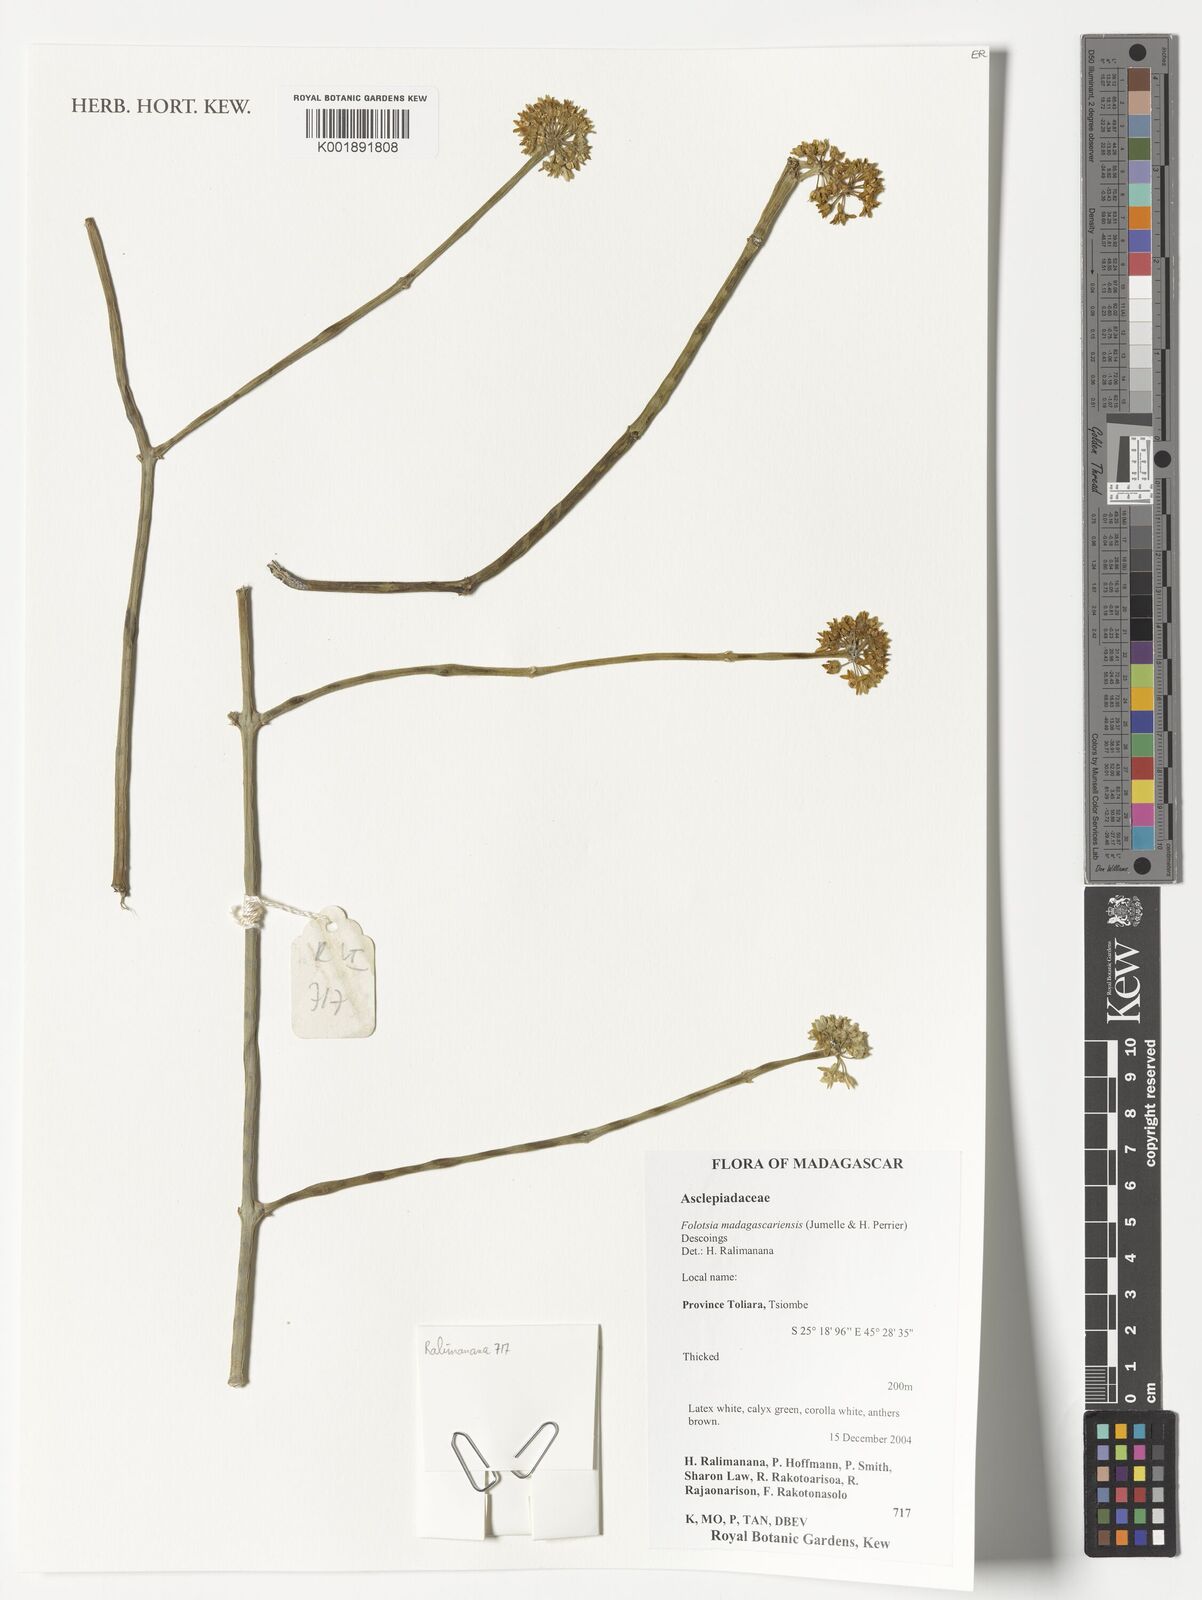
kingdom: Plantae
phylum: Tracheophyta
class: Magnoliopsida
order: Gentianales
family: Apocynaceae
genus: Cynanchum
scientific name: Cynanchum toliari
